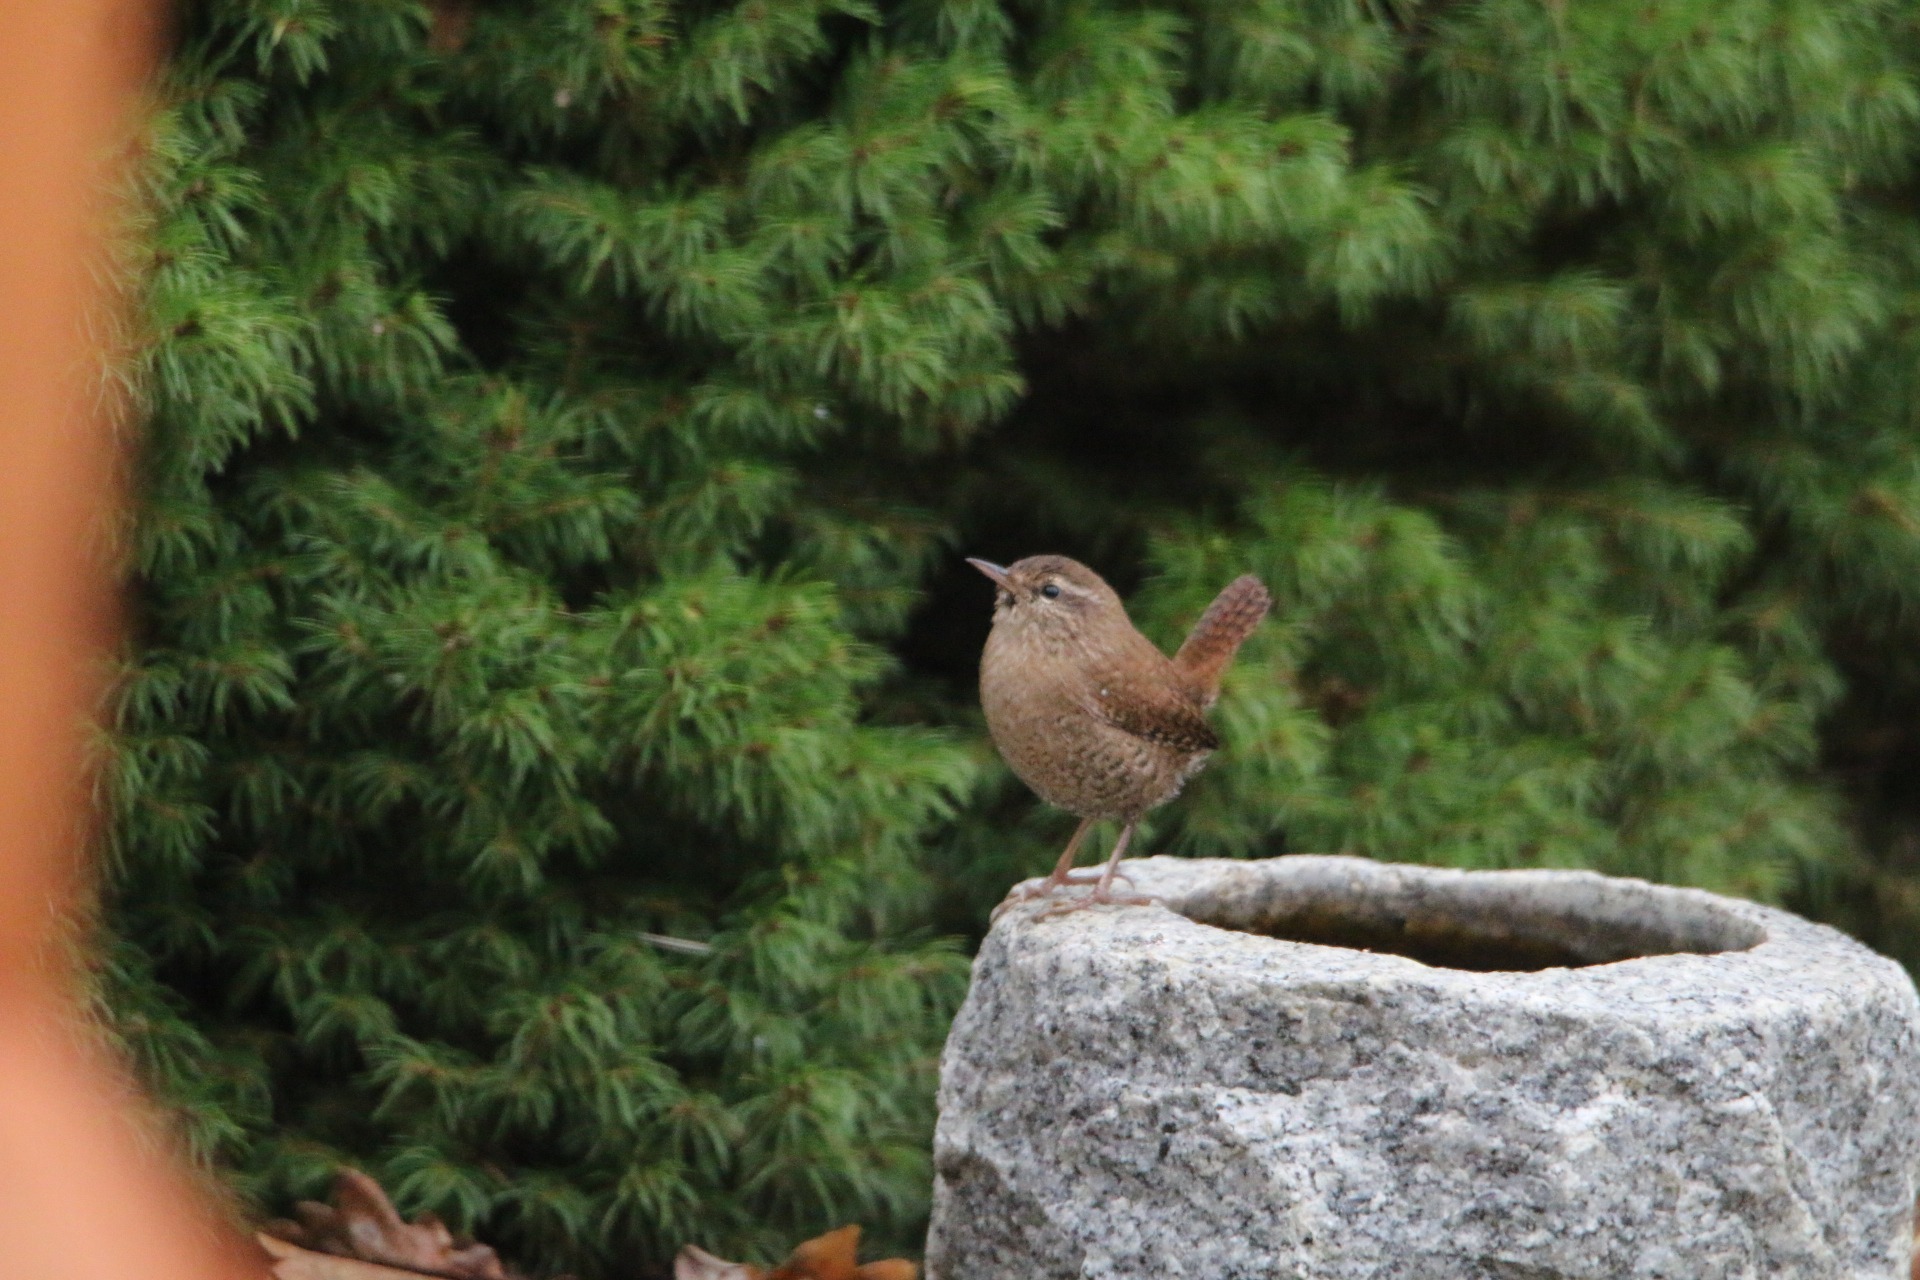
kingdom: Animalia
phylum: Chordata
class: Aves
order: Passeriformes
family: Troglodytidae
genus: Troglodytes
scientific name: Troglodytes troglodytes
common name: Gærdesmutte
